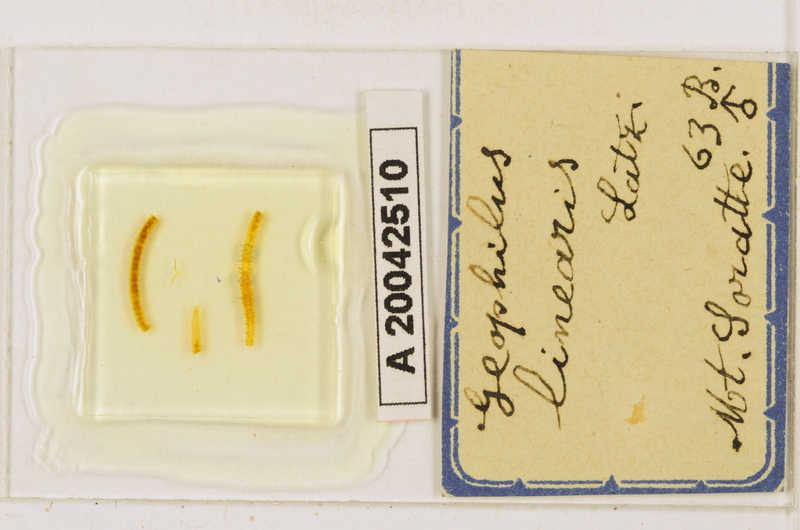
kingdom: Animalia
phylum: Arthropoda
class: Chilopoda
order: Geophilomorpha
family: Geophilidae
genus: Stenotaenia
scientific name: Stenotaenia linearis
